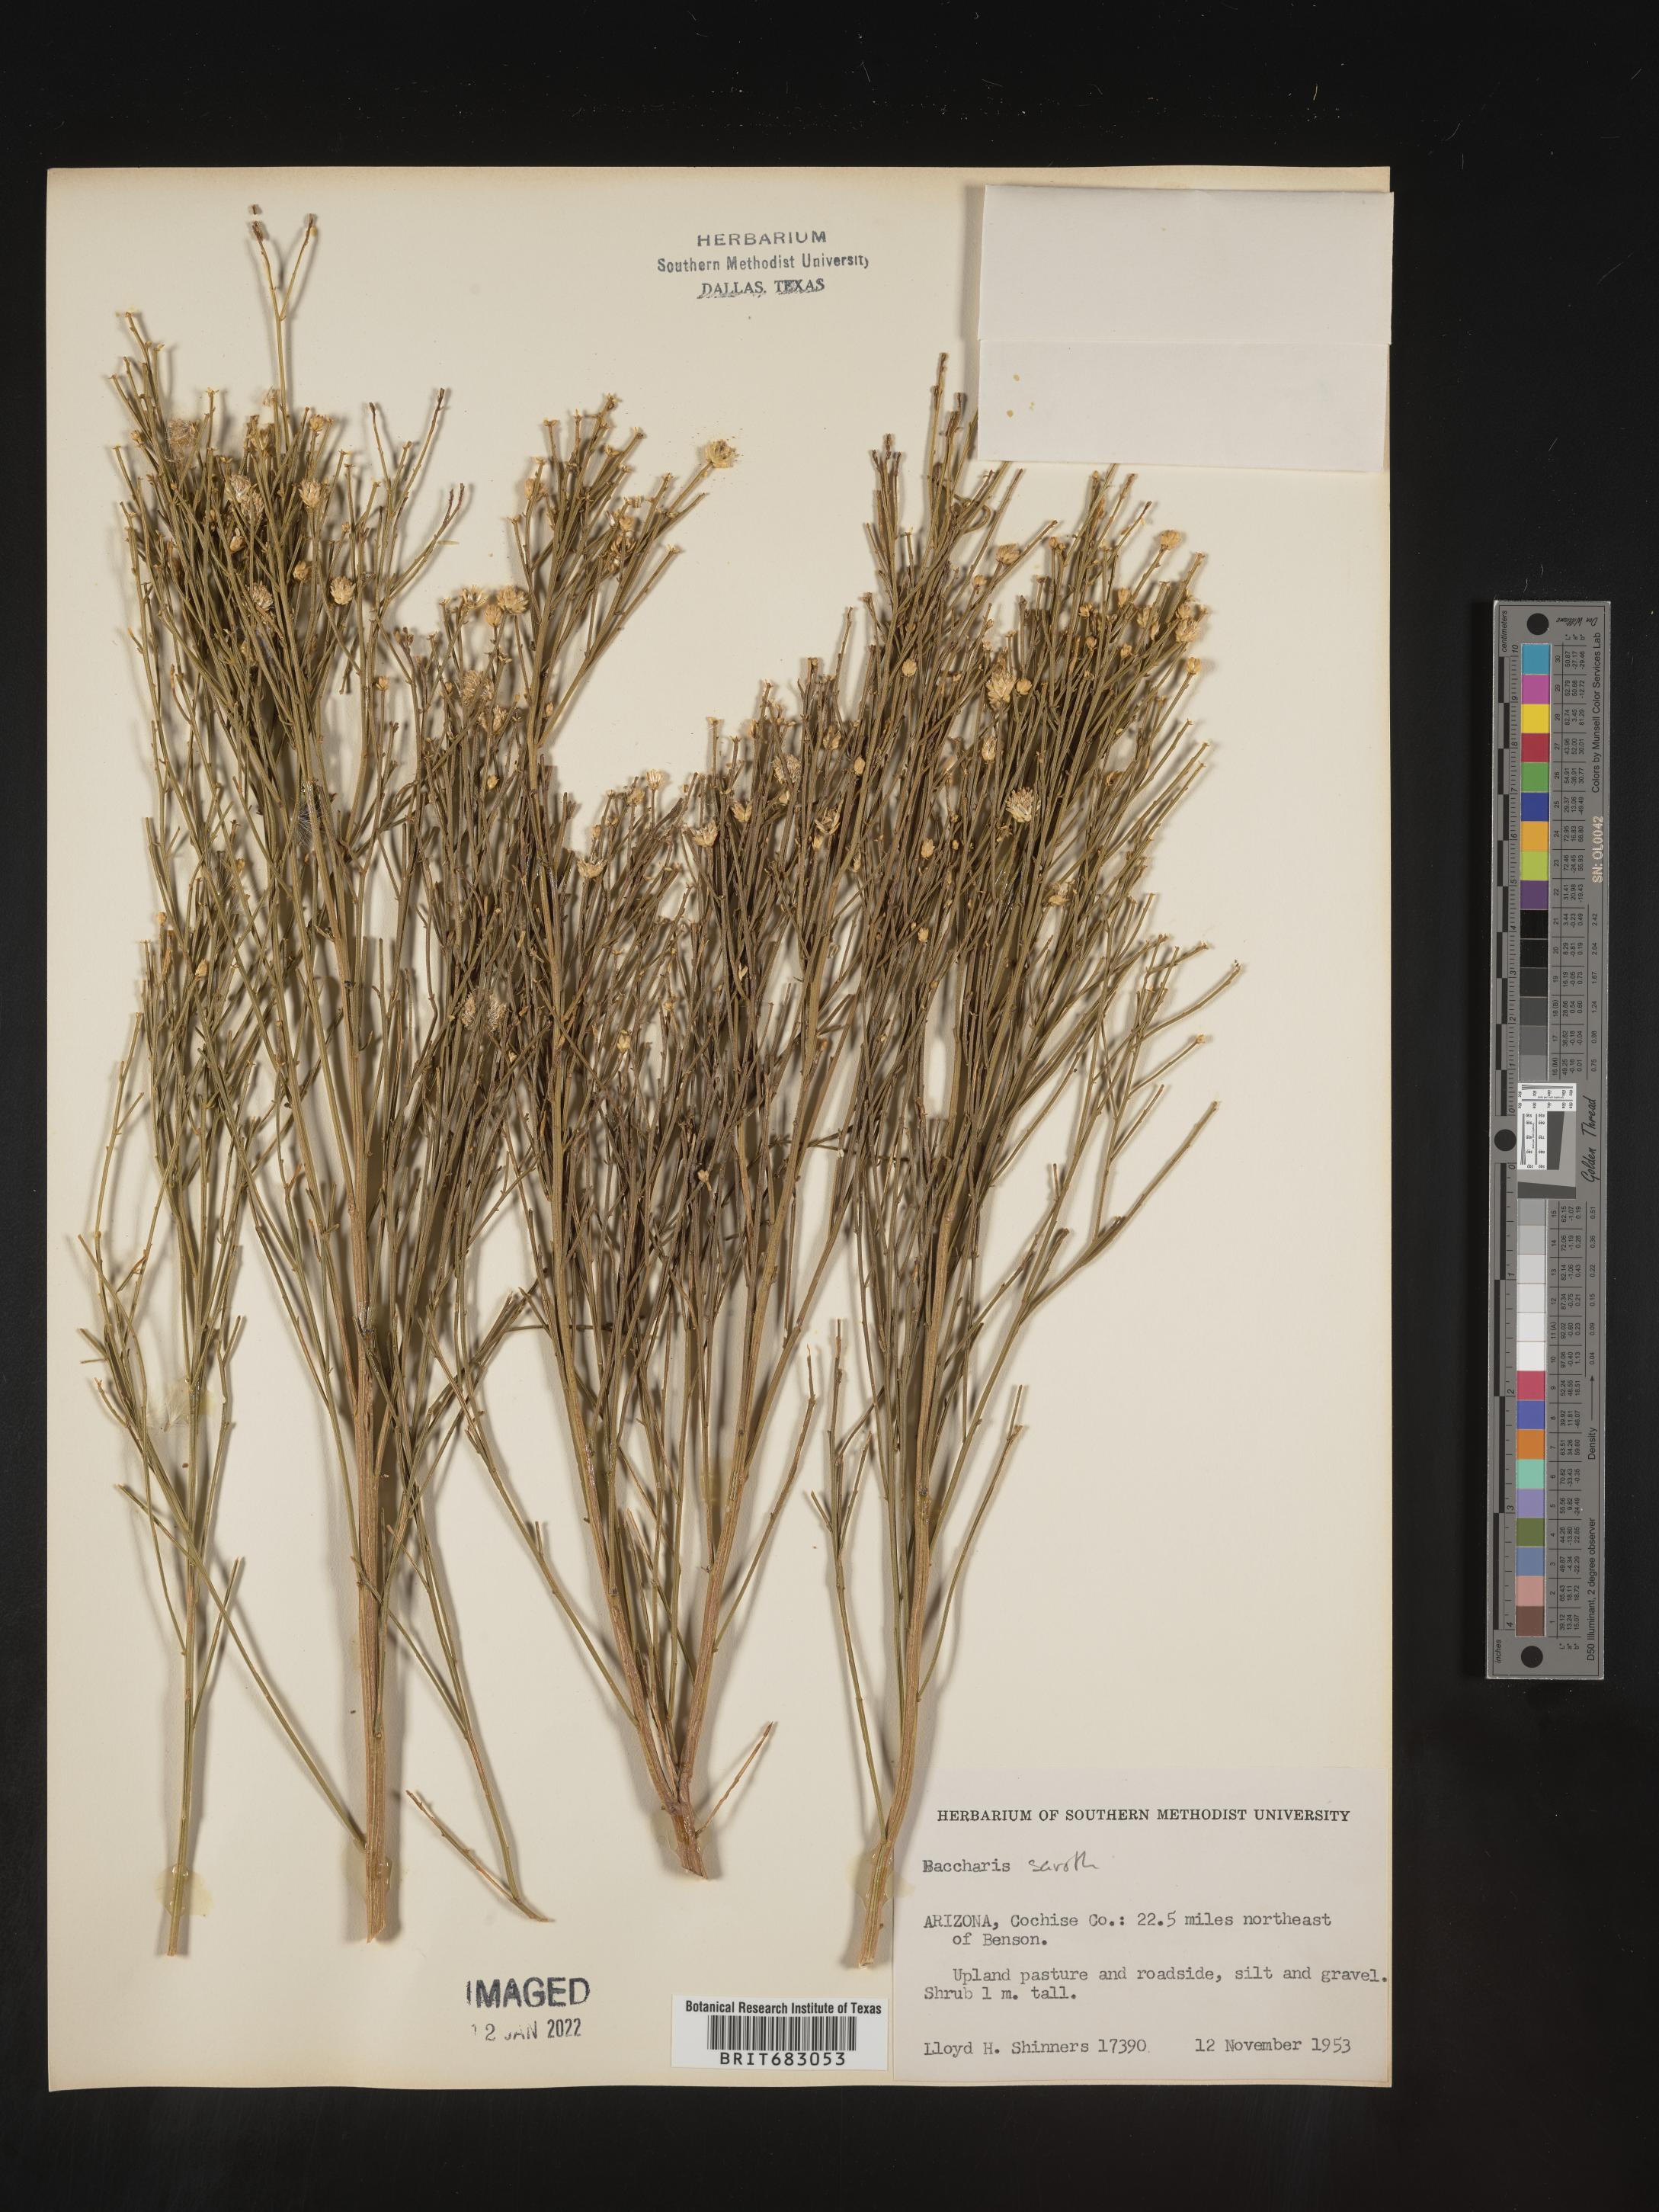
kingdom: Plantae
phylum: Tracheophyta
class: Magnoliopsida
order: Asterales
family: Asteraceae
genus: Baccharis
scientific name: Baccharis sarothroides
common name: Desert-broom
